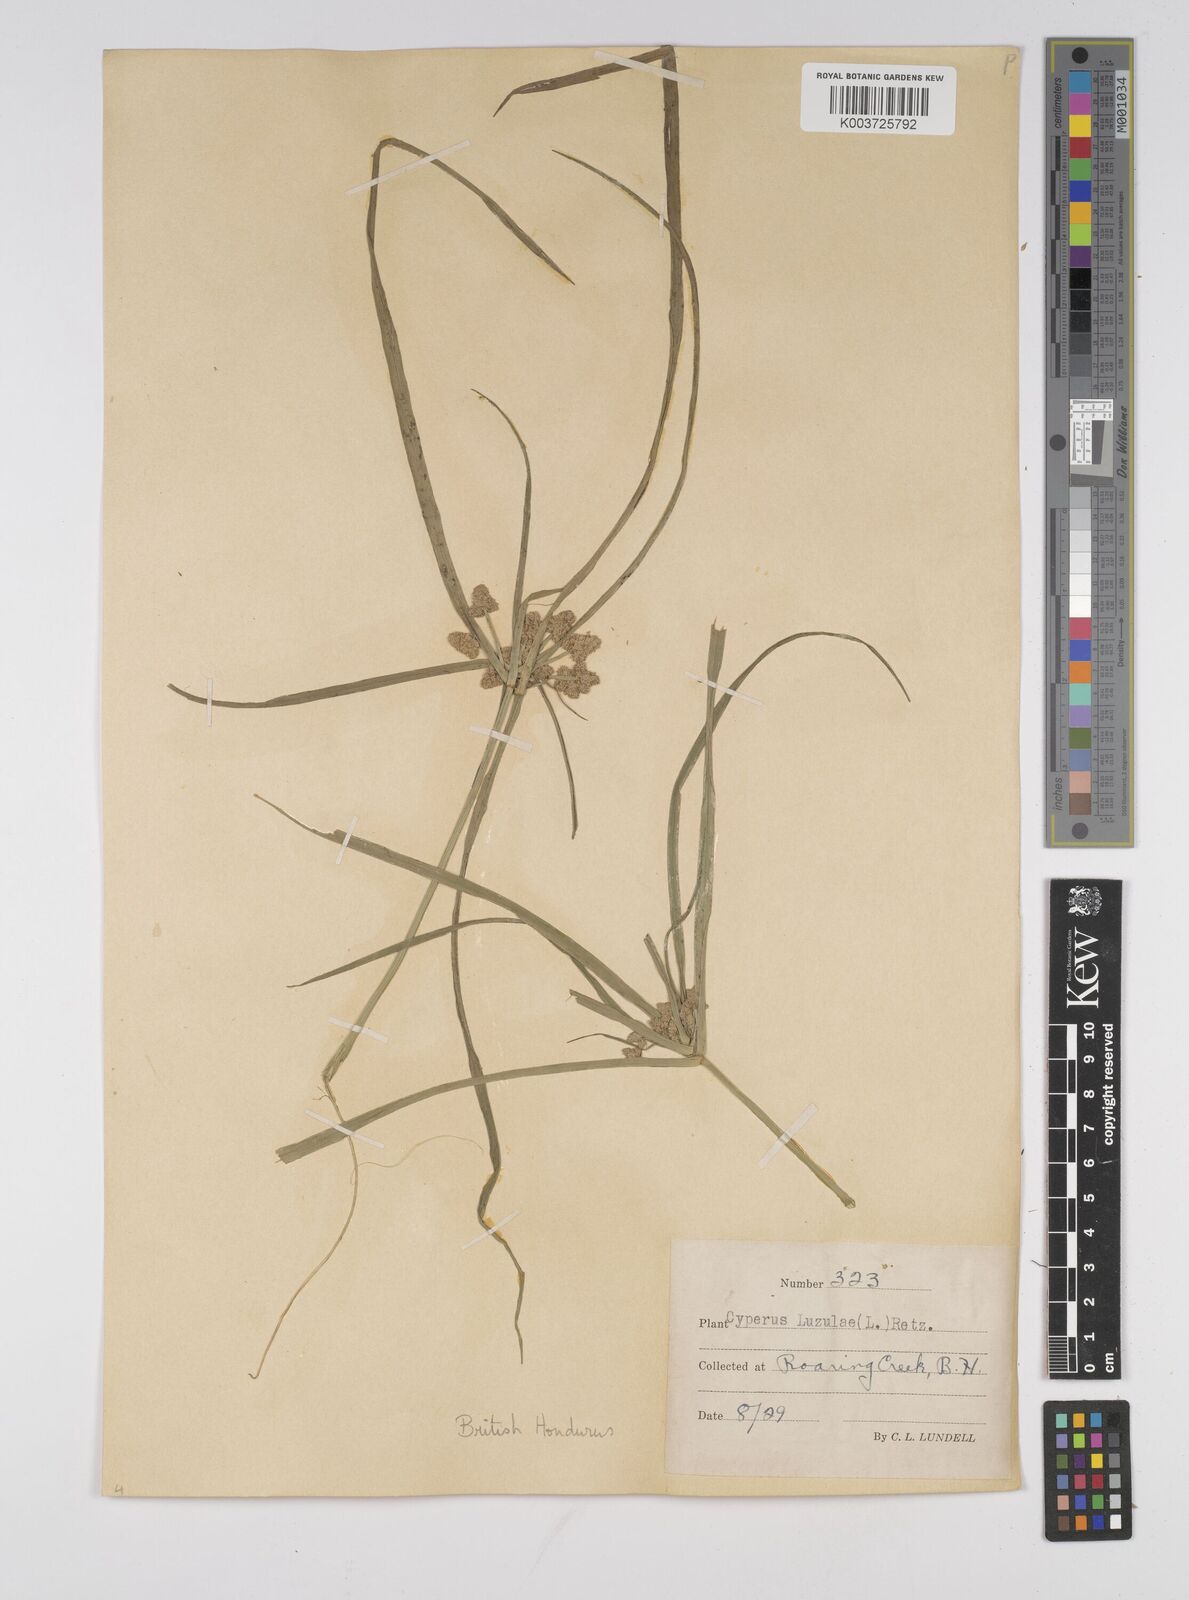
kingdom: Plantae
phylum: Tracheophyta
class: Liliopsida
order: Poales
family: Cyperaceae
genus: Cyperus
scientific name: Cyperus luzulae
